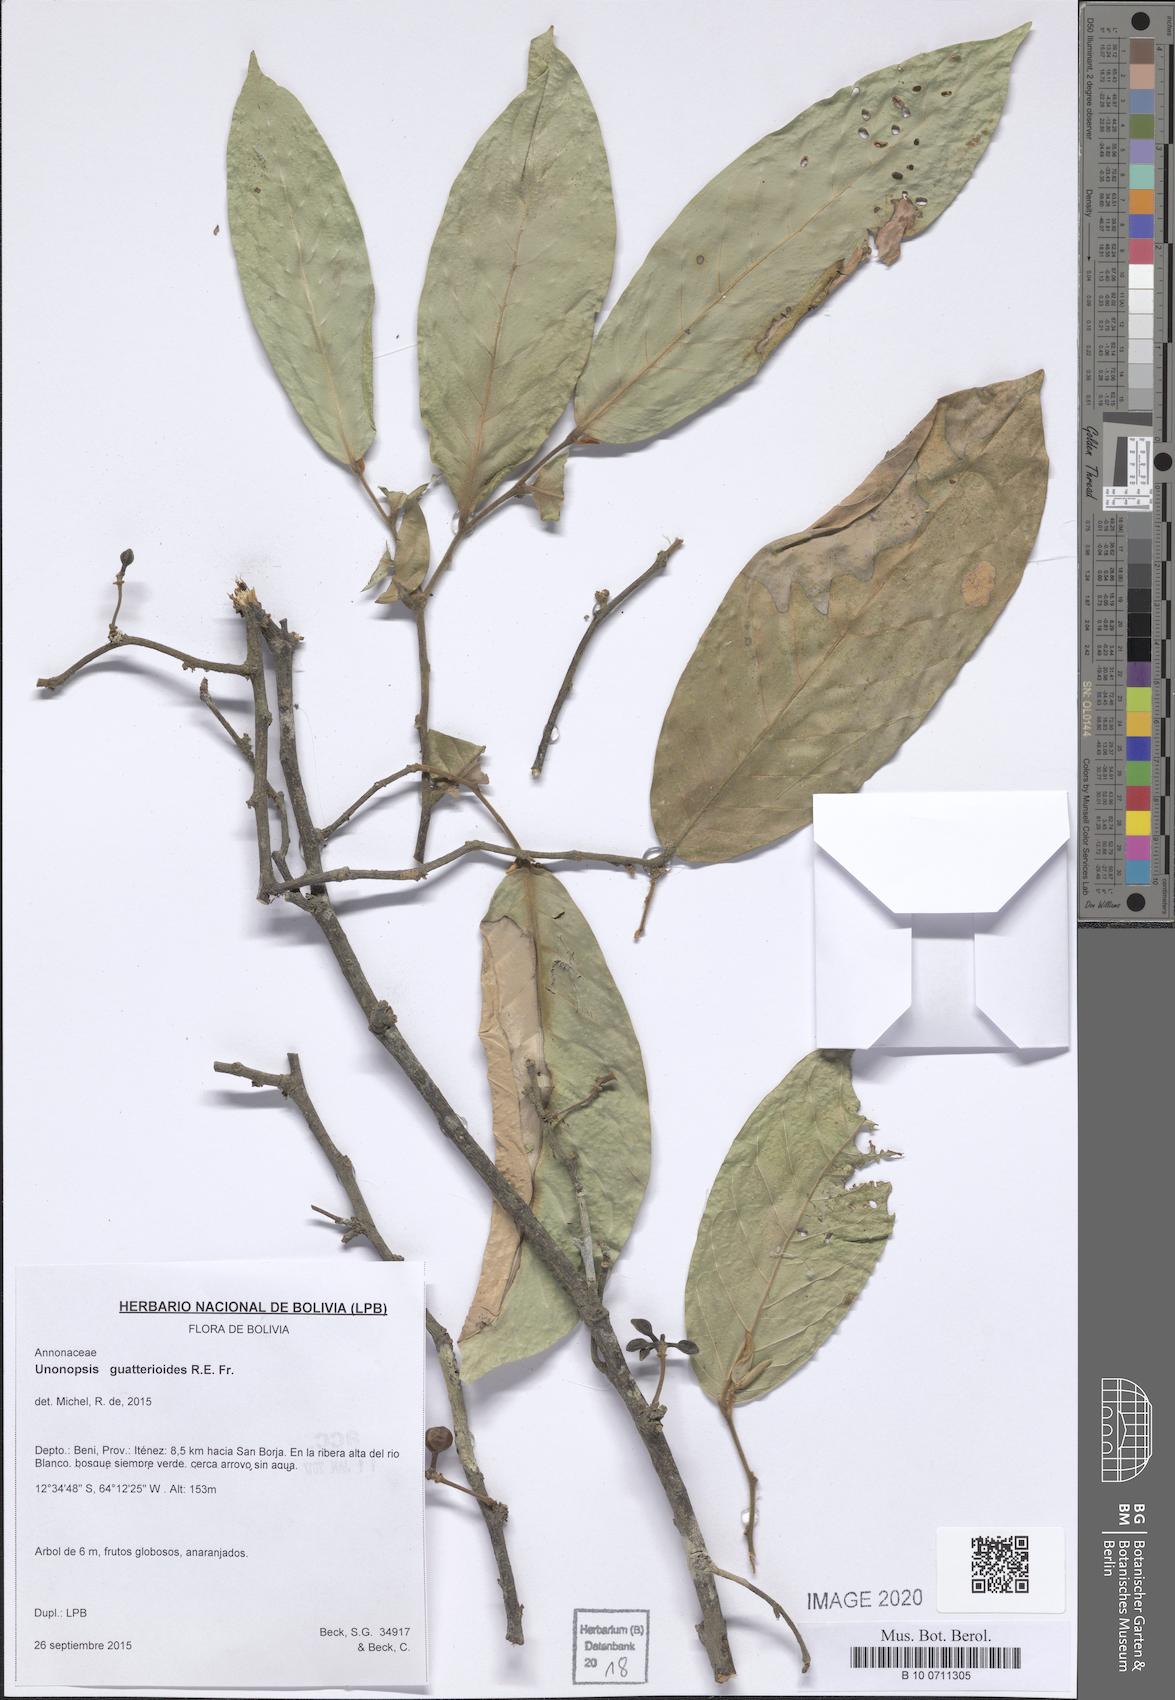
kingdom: Plantae
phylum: Tracheophyta
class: Magnoliopsida
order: Magnoliales
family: Annonaceae
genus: Unonopsis
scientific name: Unonopsis guatterioides
